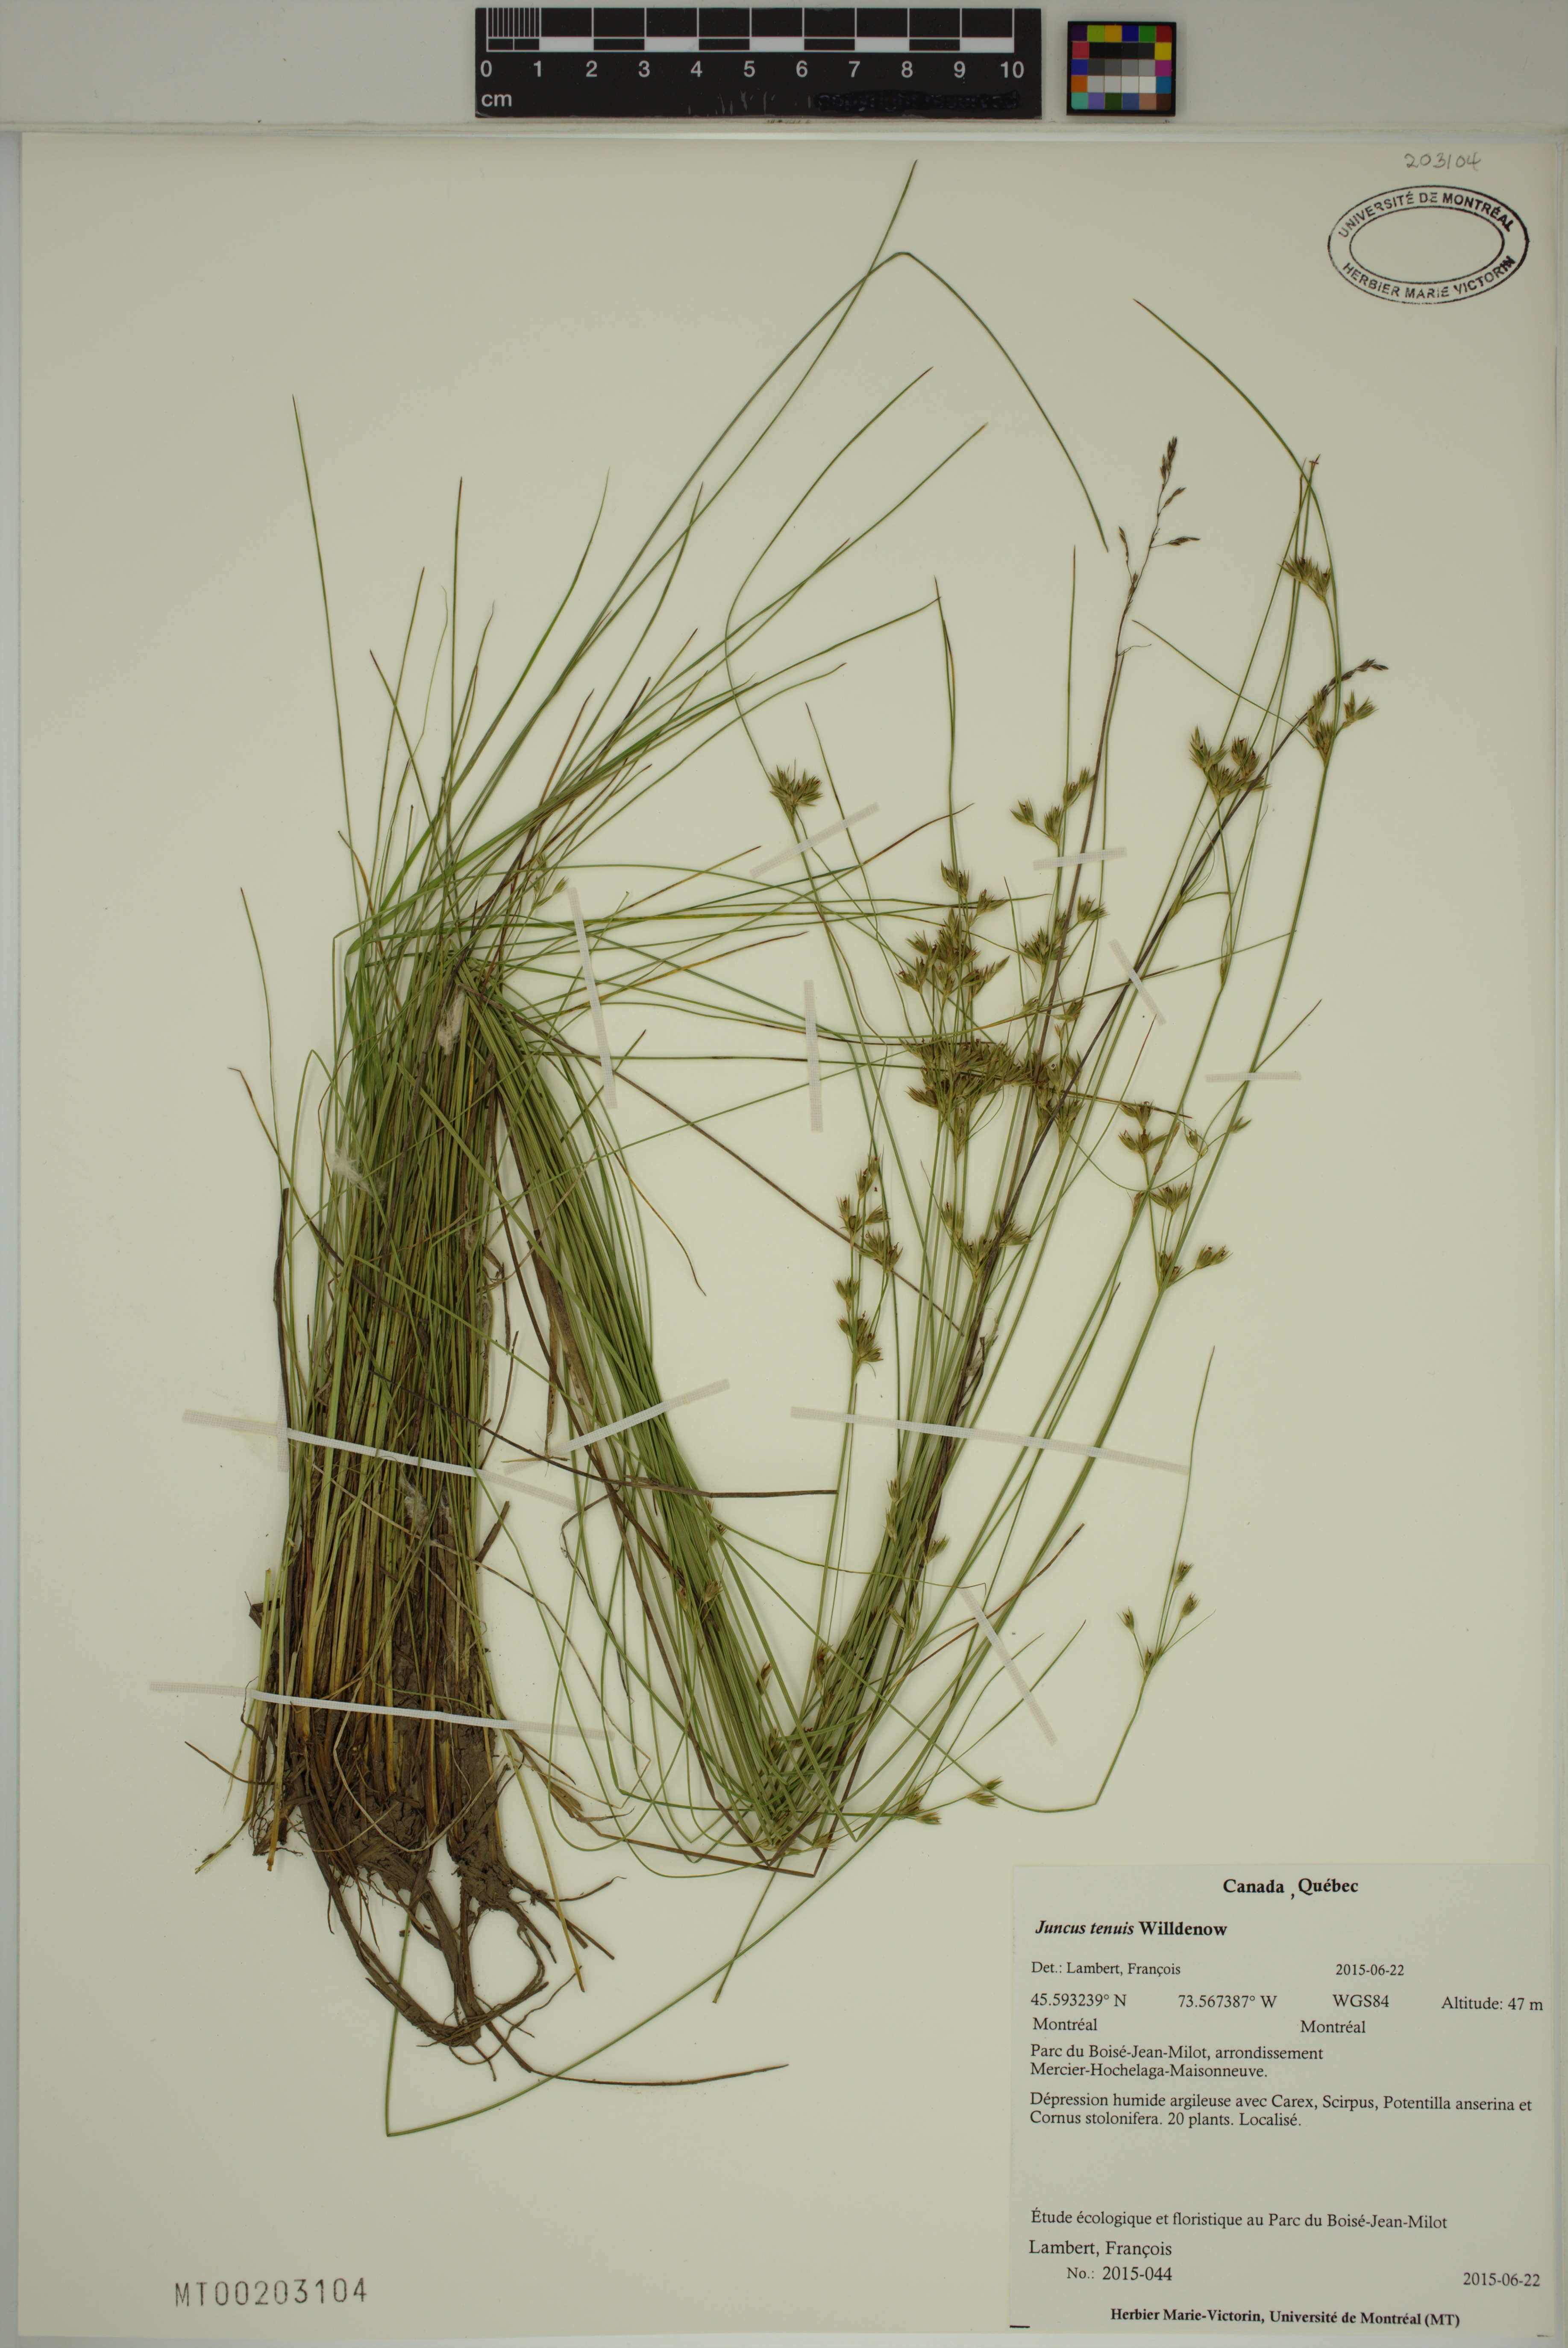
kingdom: Plantae
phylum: Tracheophyta
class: Liliopsida
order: Poales
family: Juncaceae
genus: Juncus
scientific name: Juncus tenuis
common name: Slender rush
